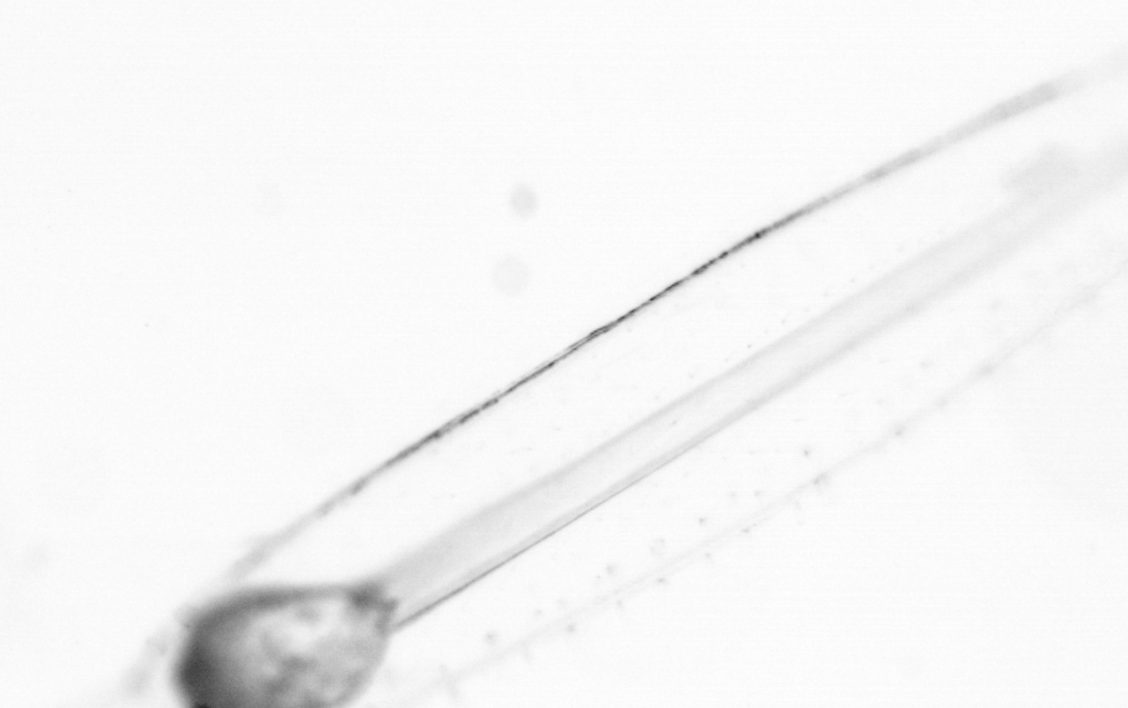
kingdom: Animalia
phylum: Chaetognatha
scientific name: Chaetognatha
